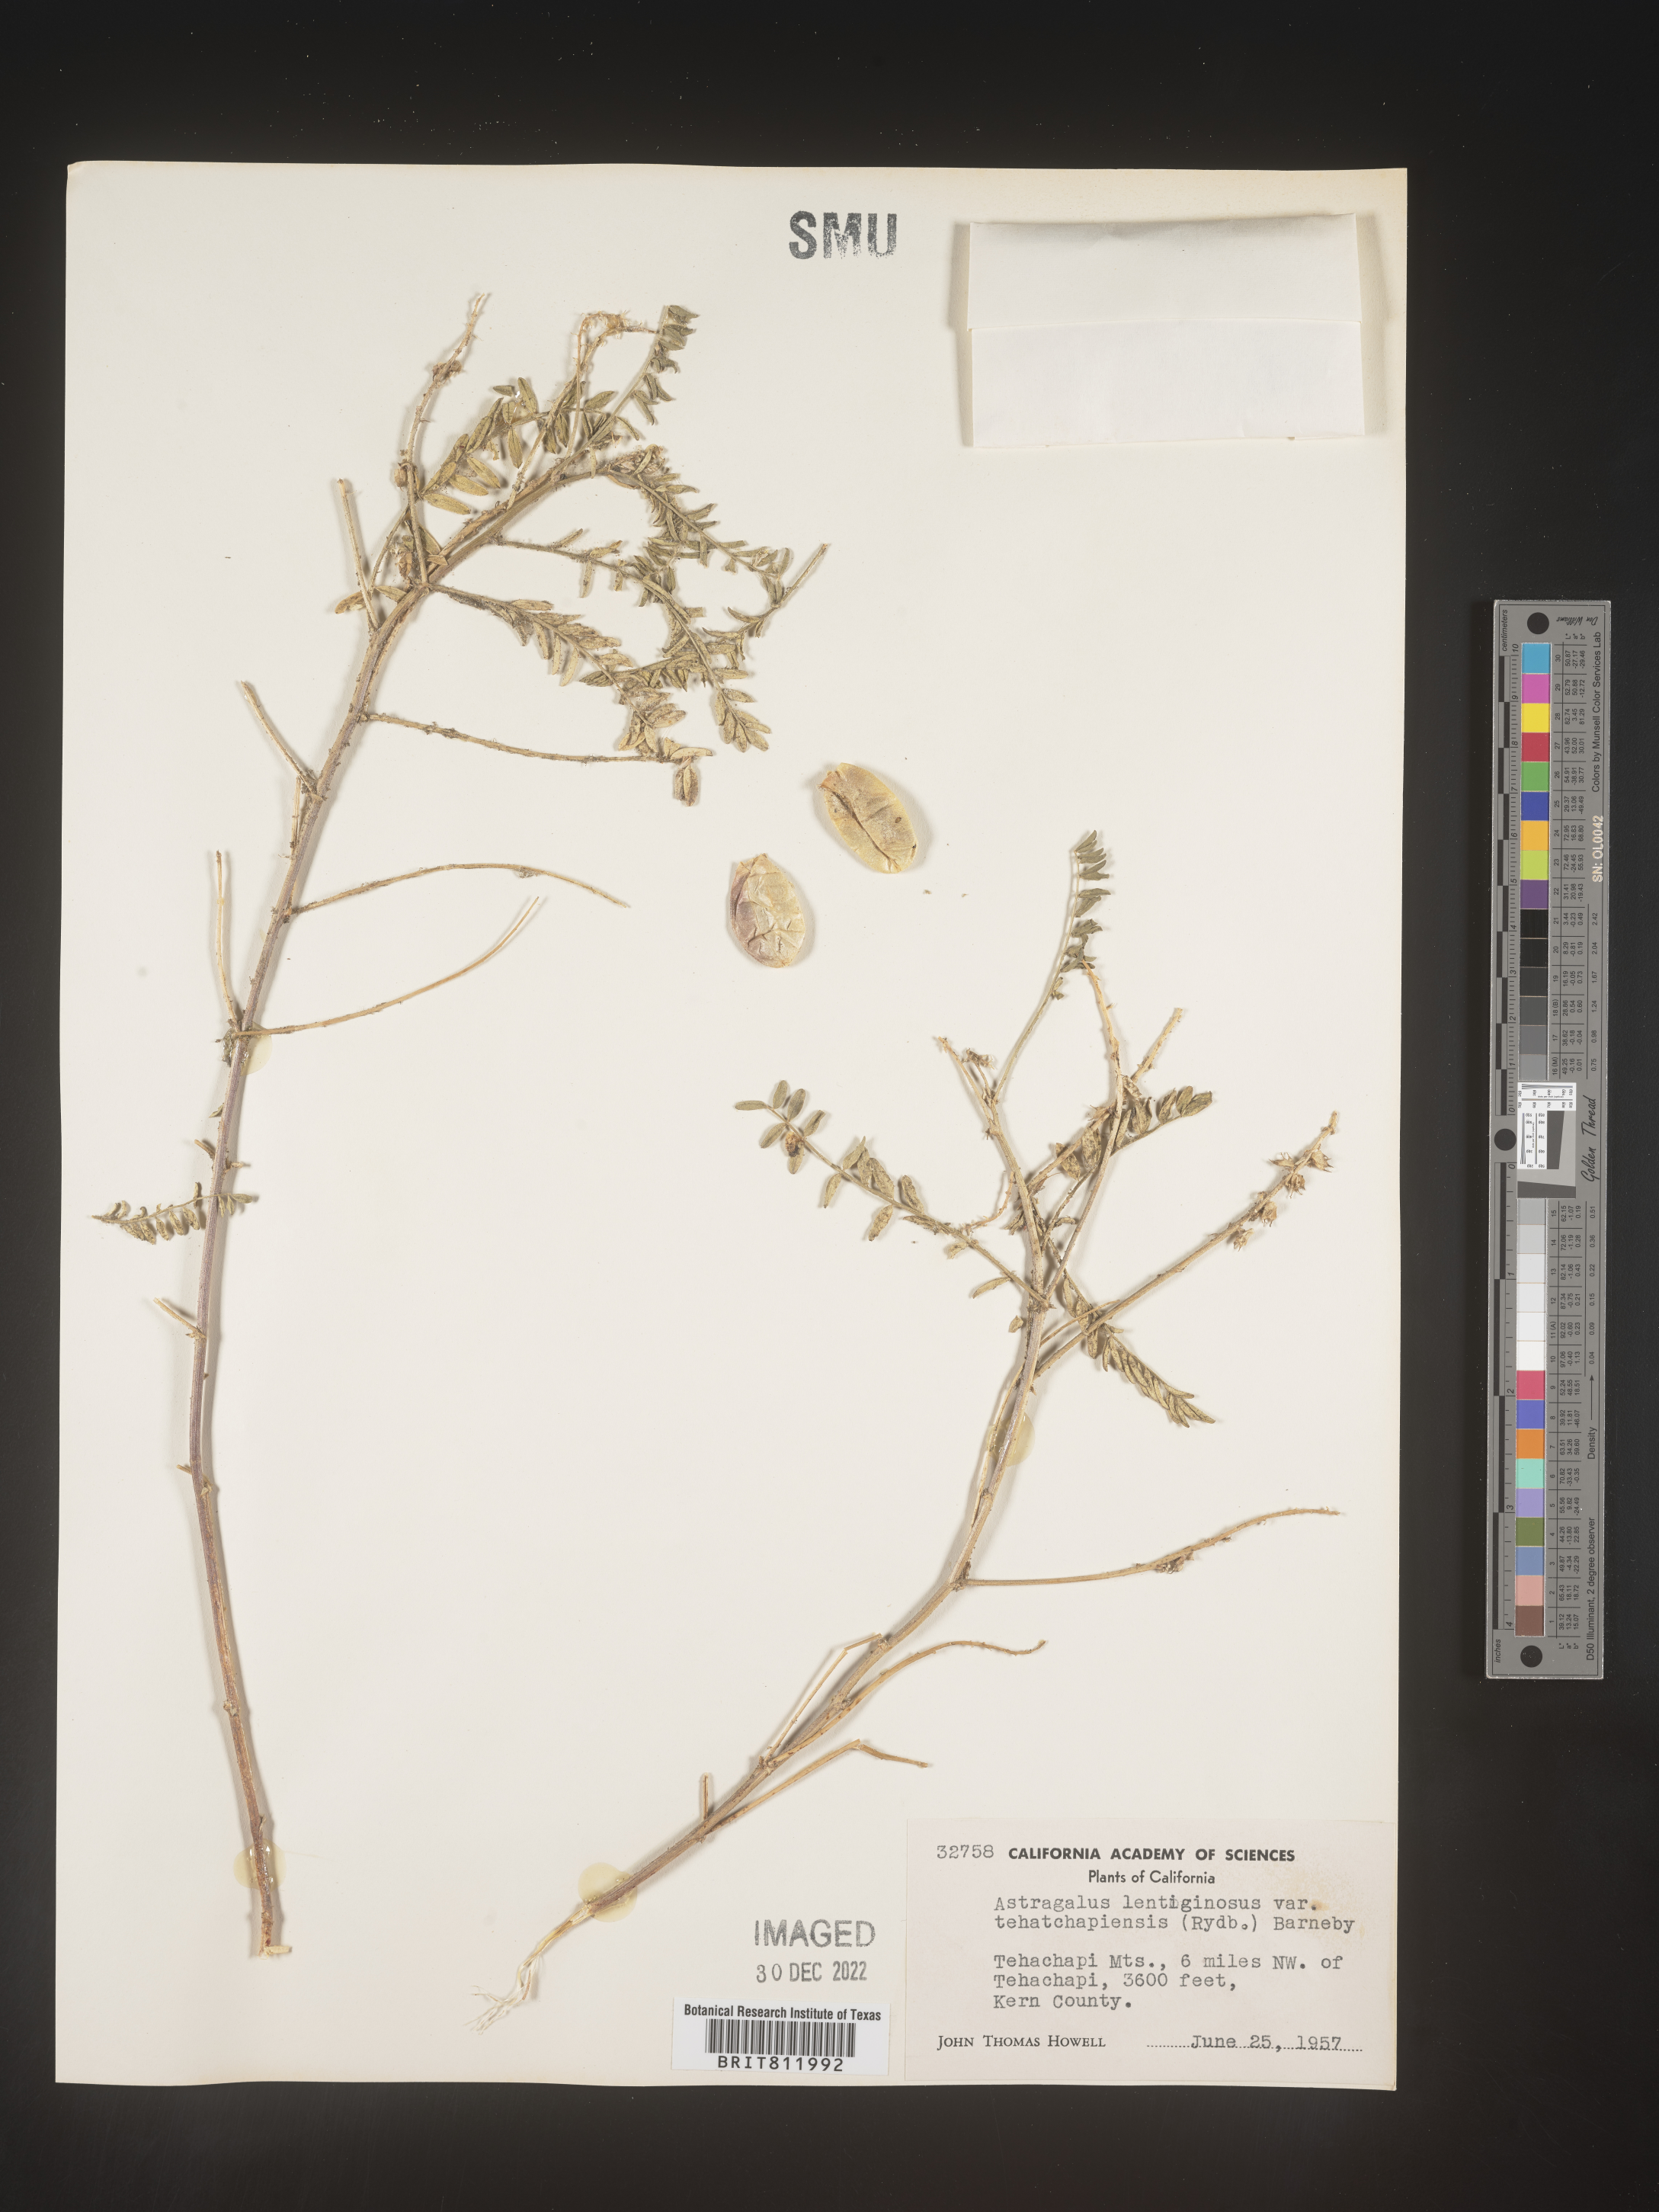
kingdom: Plantae
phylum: Tracheophyta
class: Magnoliopsida
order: Fabales
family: Fabaceae
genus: Astragalus
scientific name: Astragalus lentiginosus
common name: Freckled milkvetch
